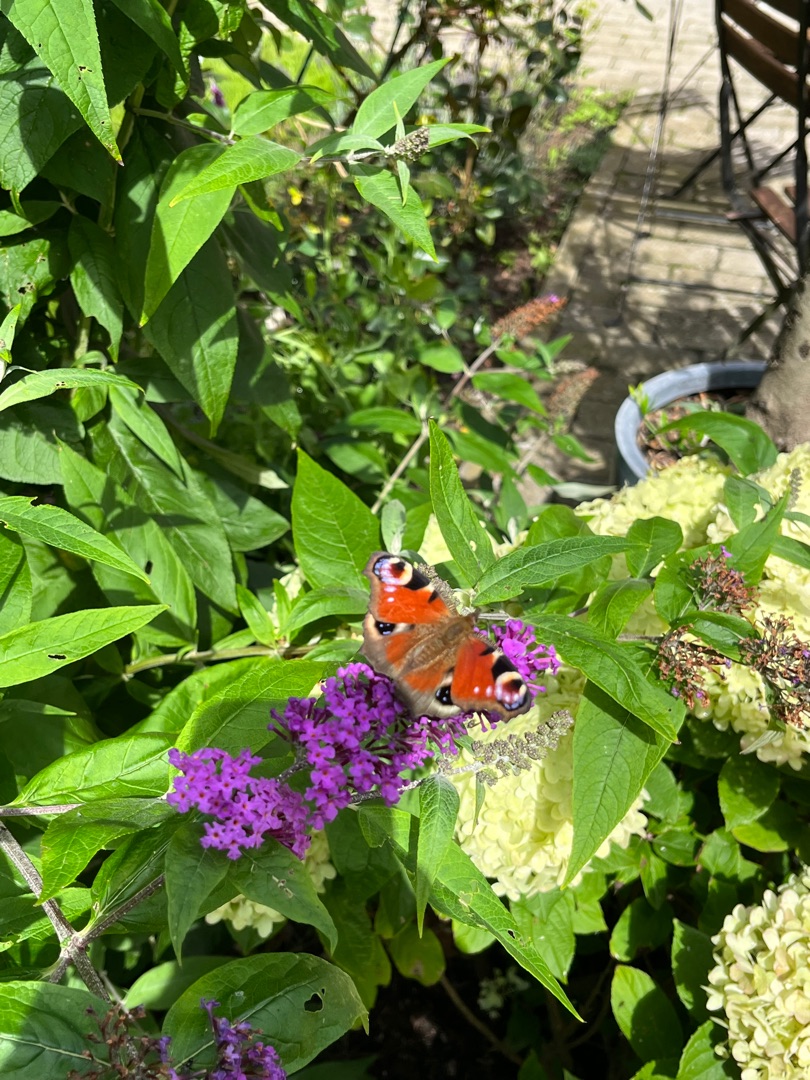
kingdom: Animalia
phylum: Arthropoda
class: Insecta
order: Lepidoptera
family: Nymphalidae
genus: Aglais
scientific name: Aglais io
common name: Dagpåfugleøje
